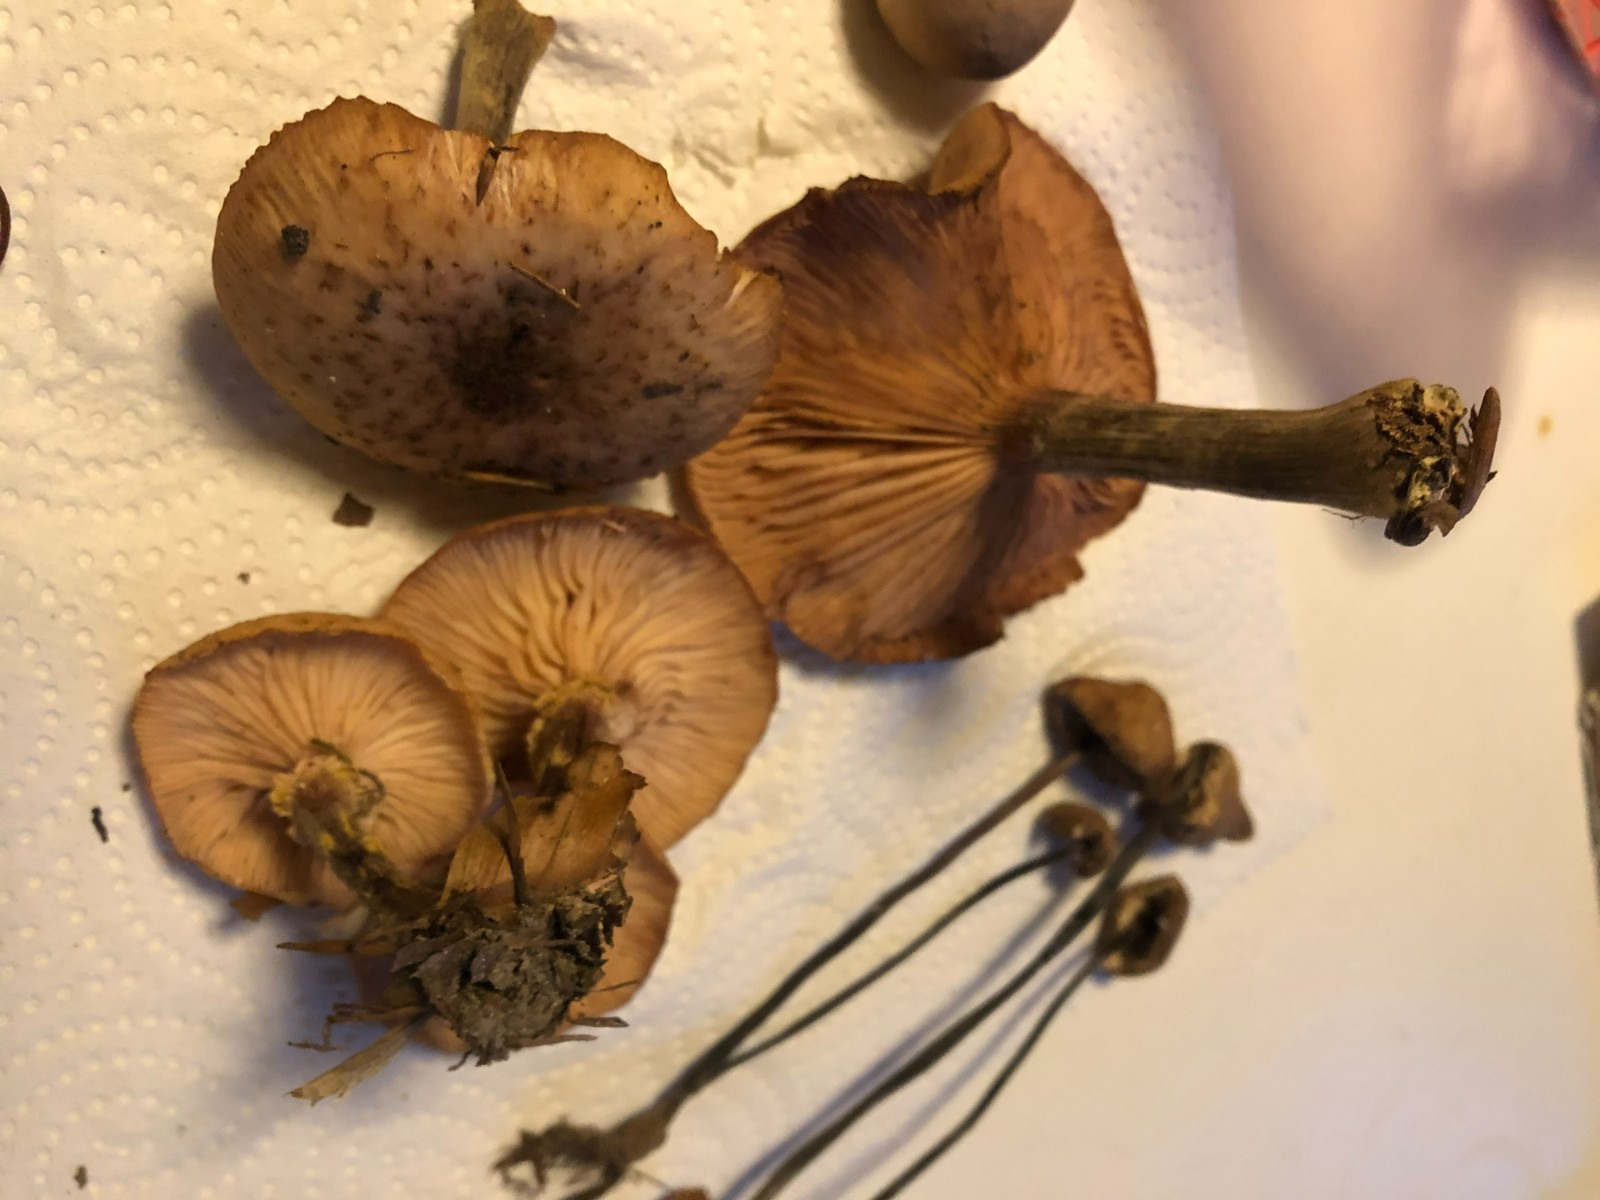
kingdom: Fungi
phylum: Basidiomycota
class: Agaricomycetes
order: Agaricales
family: Physalacriaceae
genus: Armillaria
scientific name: Armillaria
